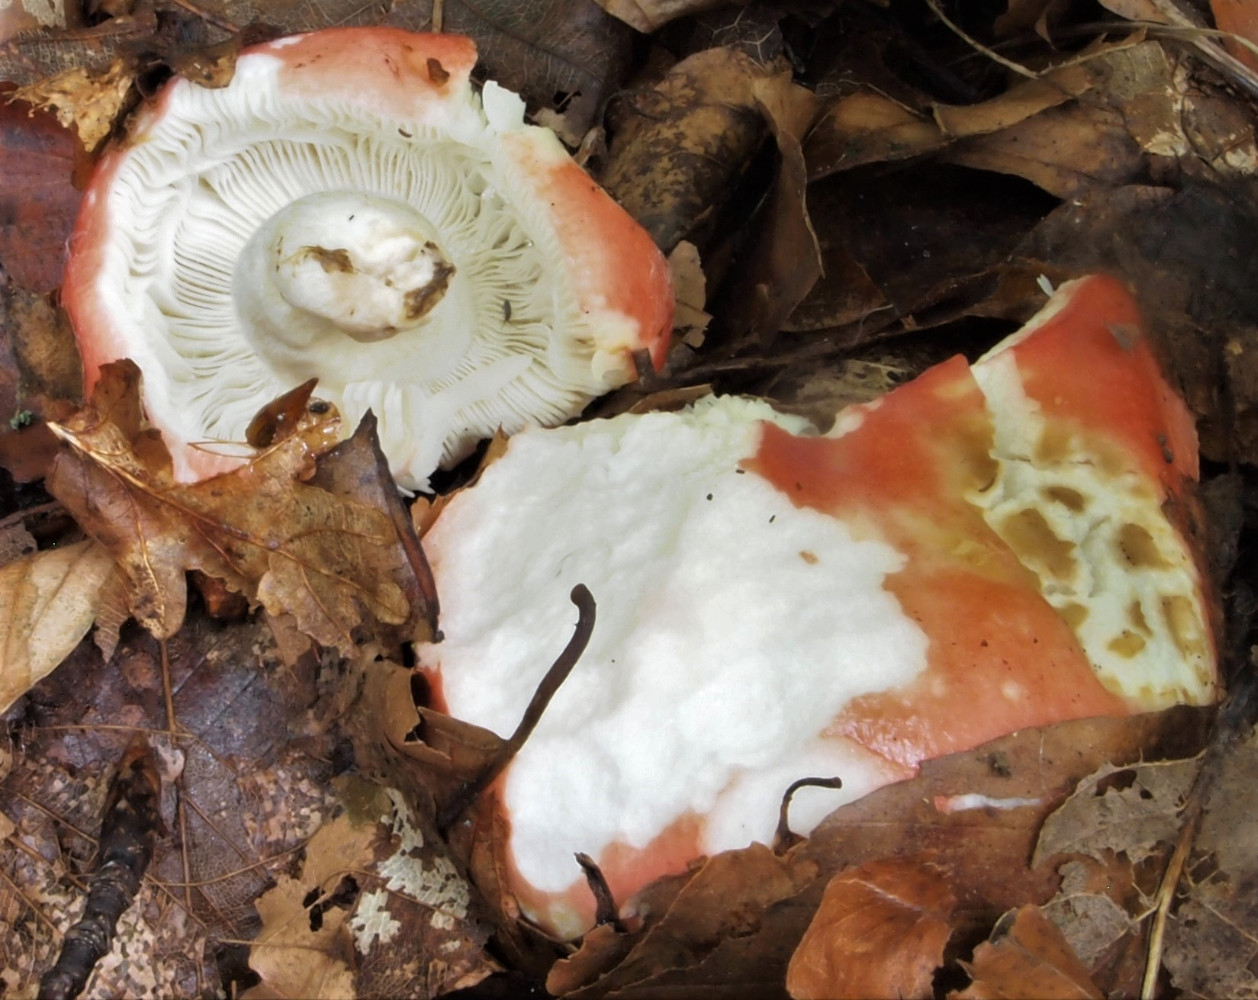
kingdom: Fungi
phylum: Basidiomycota
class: Agaricomycetes
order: Russulales
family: Russulaceae
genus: Russula
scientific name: Russula silvestris
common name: mellemstor gift-skørhat
